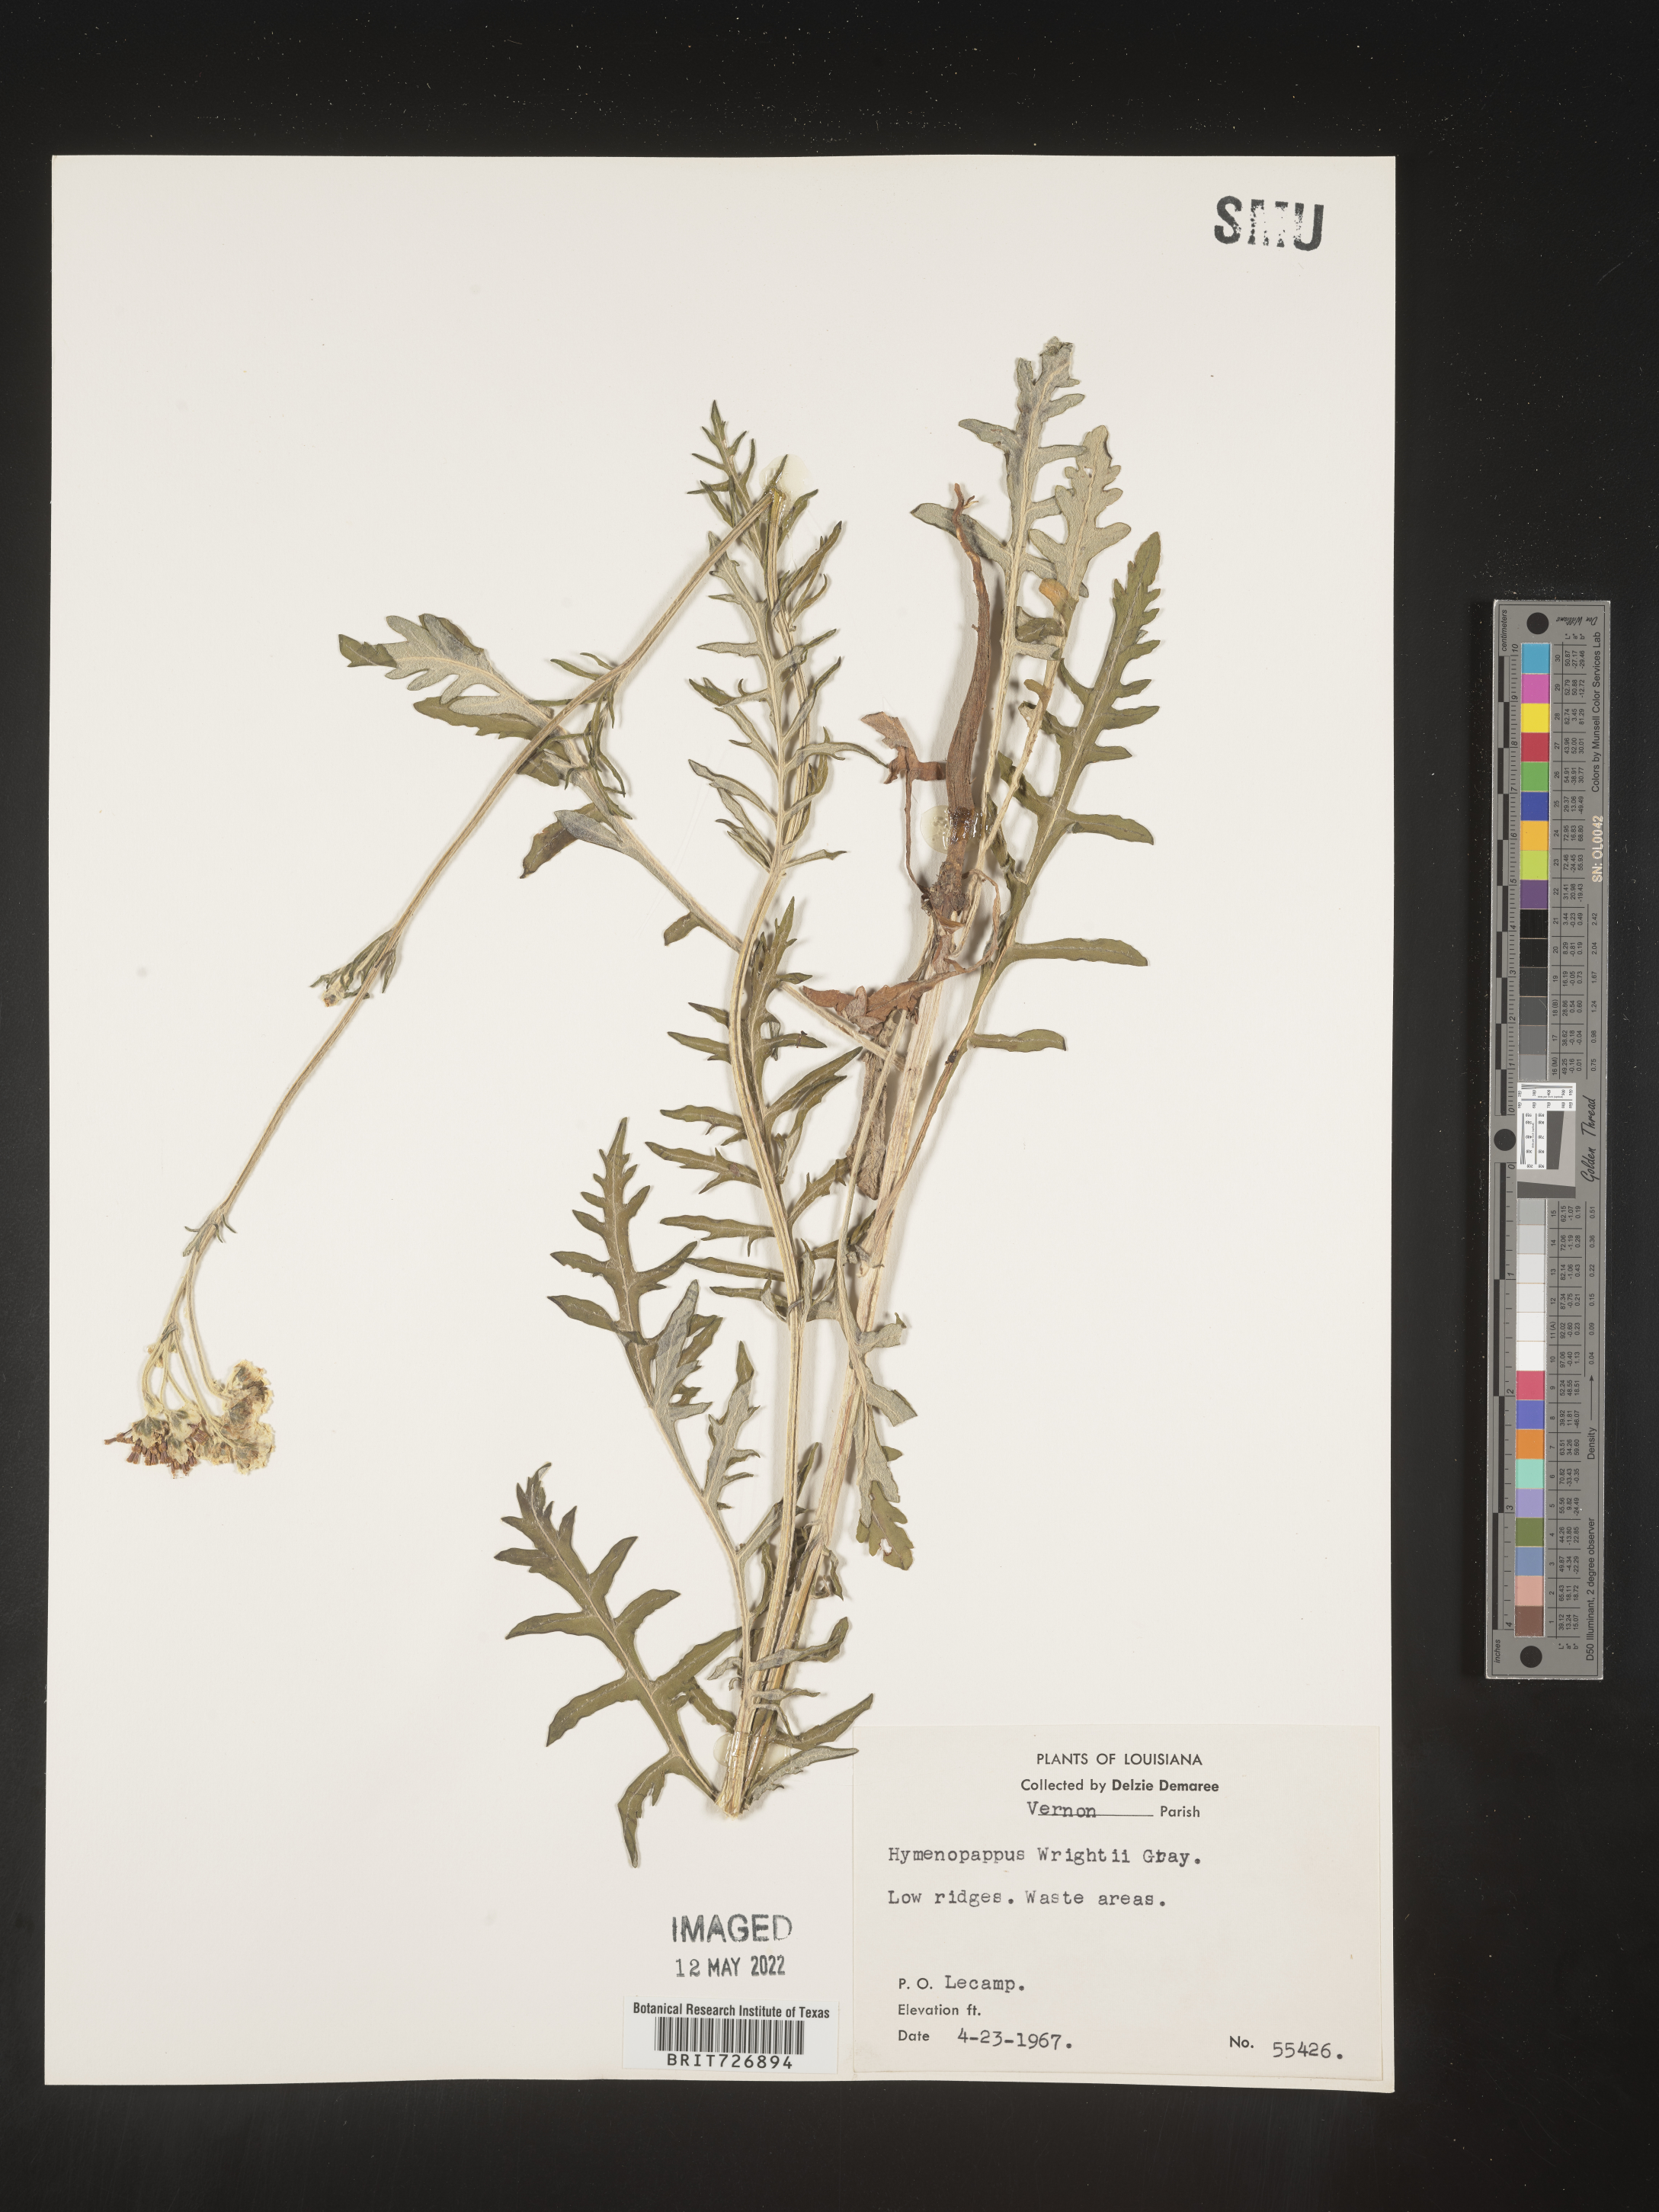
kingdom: Plantae
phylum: Tracheophyta
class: Magnoliopsida
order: Asterales
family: Asteraceae
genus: Hymenopappus
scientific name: Hymenopappus artemisiifolius
